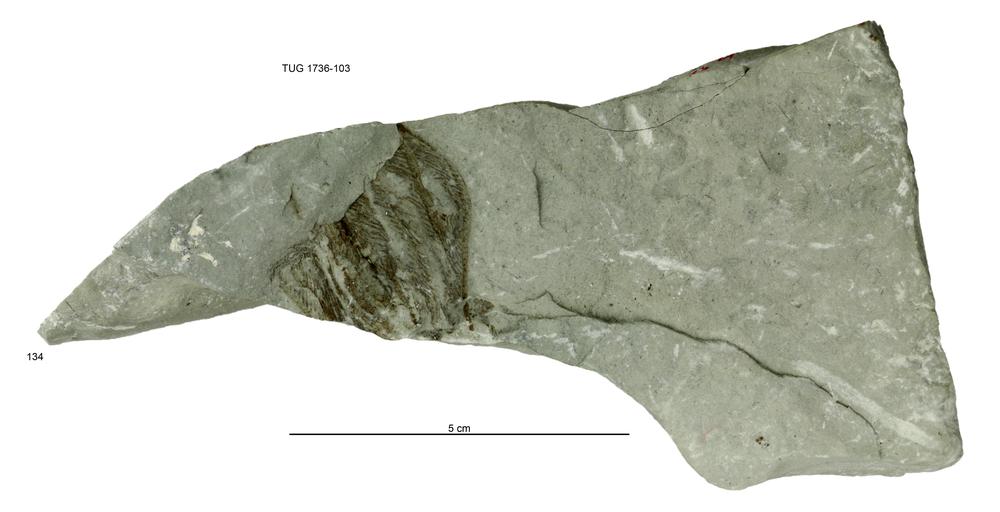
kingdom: Animalia
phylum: Echinodermata
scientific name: Echinodermata
